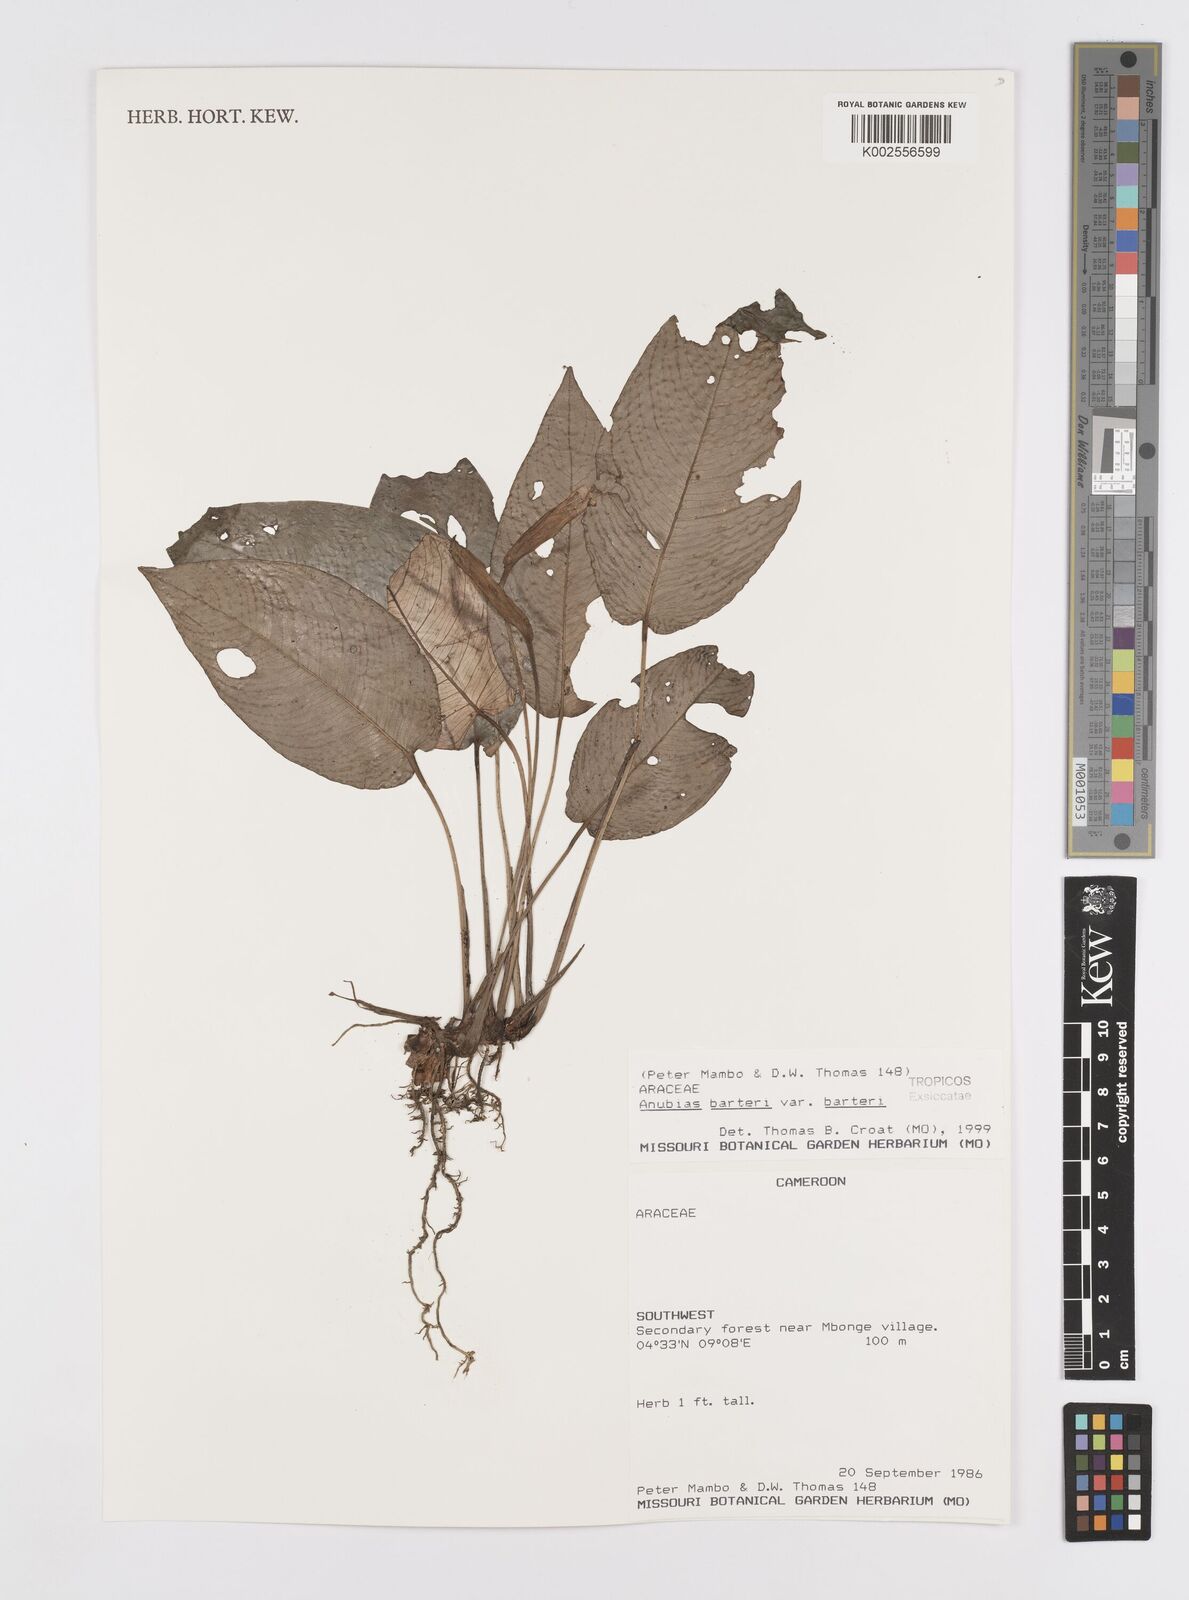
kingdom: Plantae
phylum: Tracheophyta
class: Liliopsida
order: Alismatales
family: Araceae
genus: Anubias
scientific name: Anubias barteri
